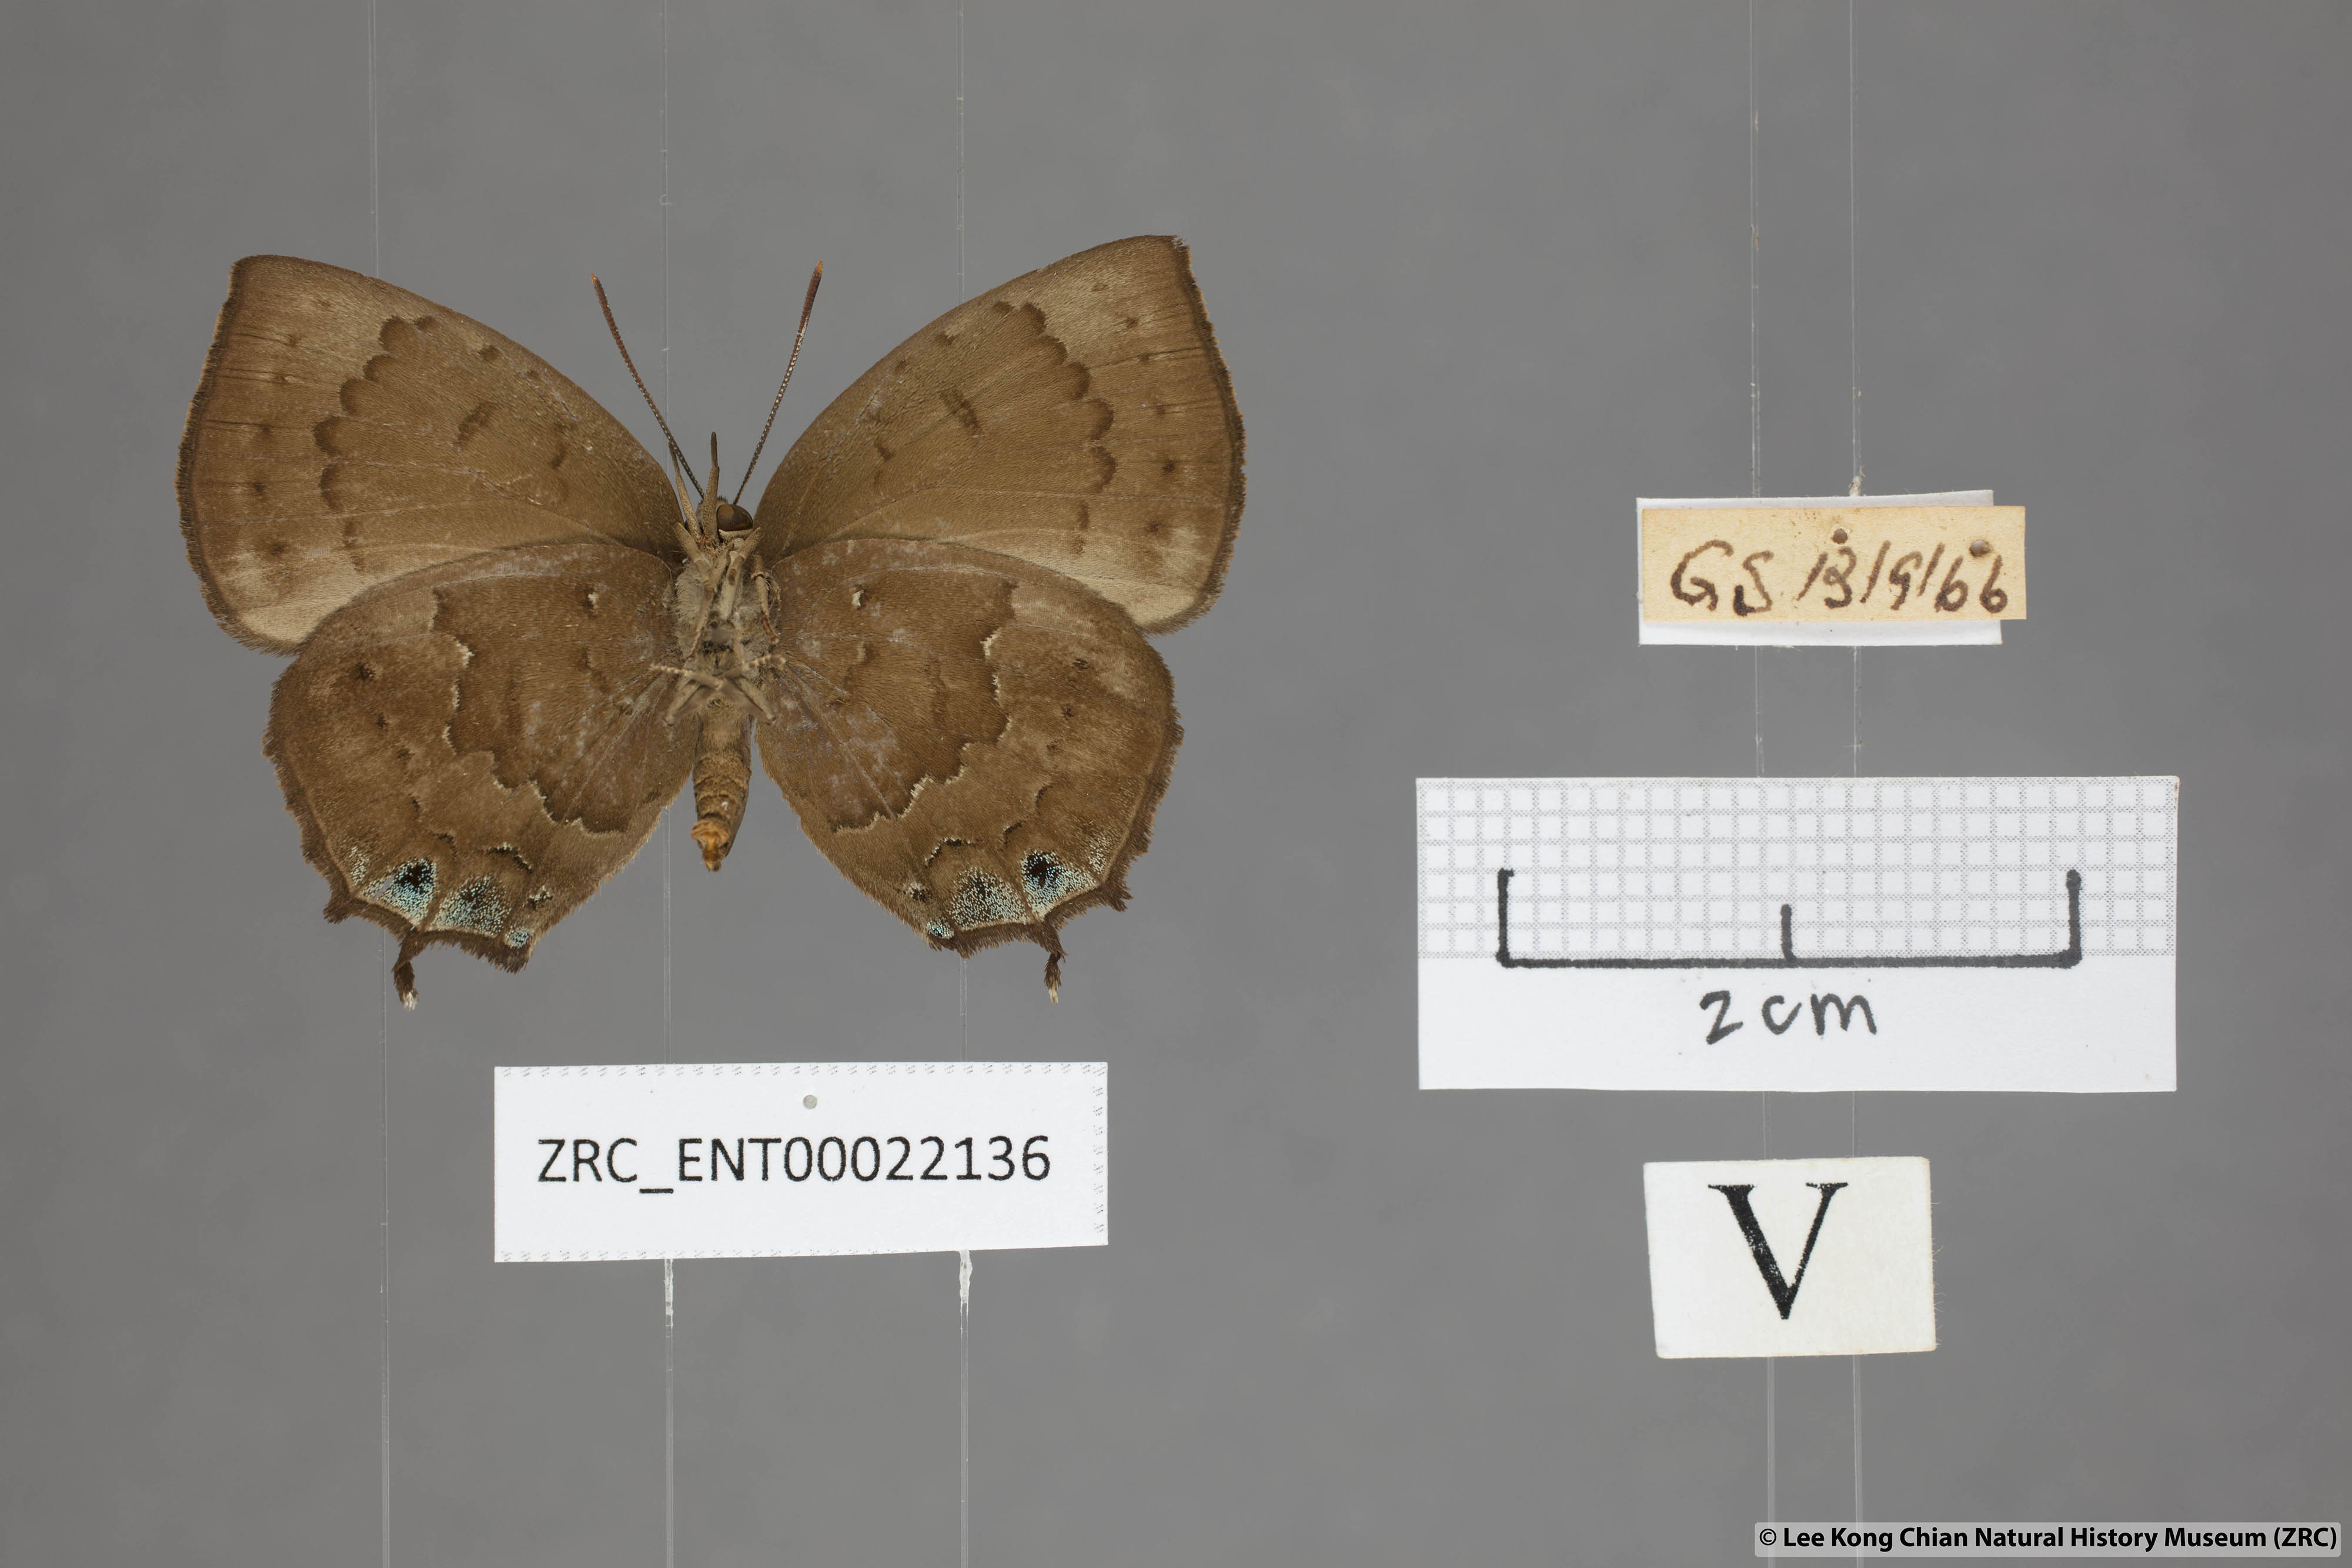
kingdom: Animalia
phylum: Arthropoda
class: Insecta
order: Lepidoptera
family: Lycaenidae
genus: Surendra
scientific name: Surendra vivarna
